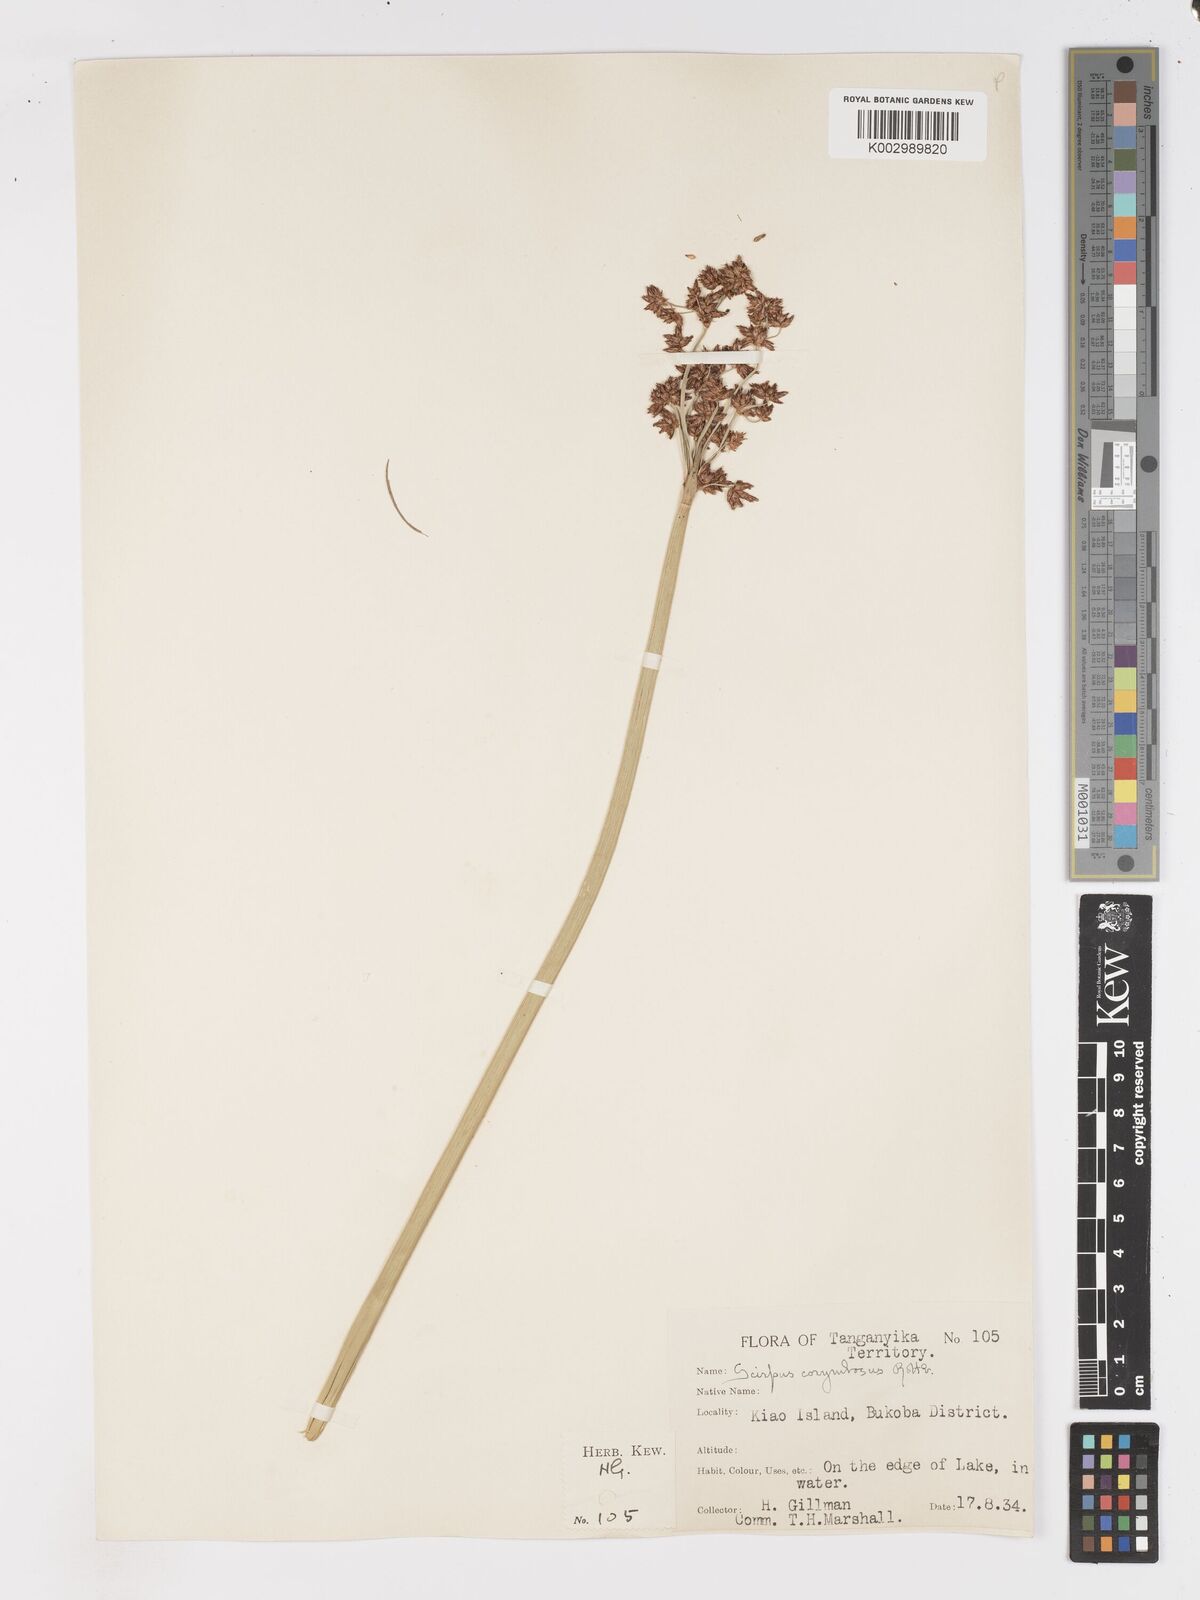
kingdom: Plantae
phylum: Tracheophyta
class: Liliopsida
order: Poales
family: Cyperaceae
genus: Schoenoplectiella
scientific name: Schoenoplectiella brachyceras
